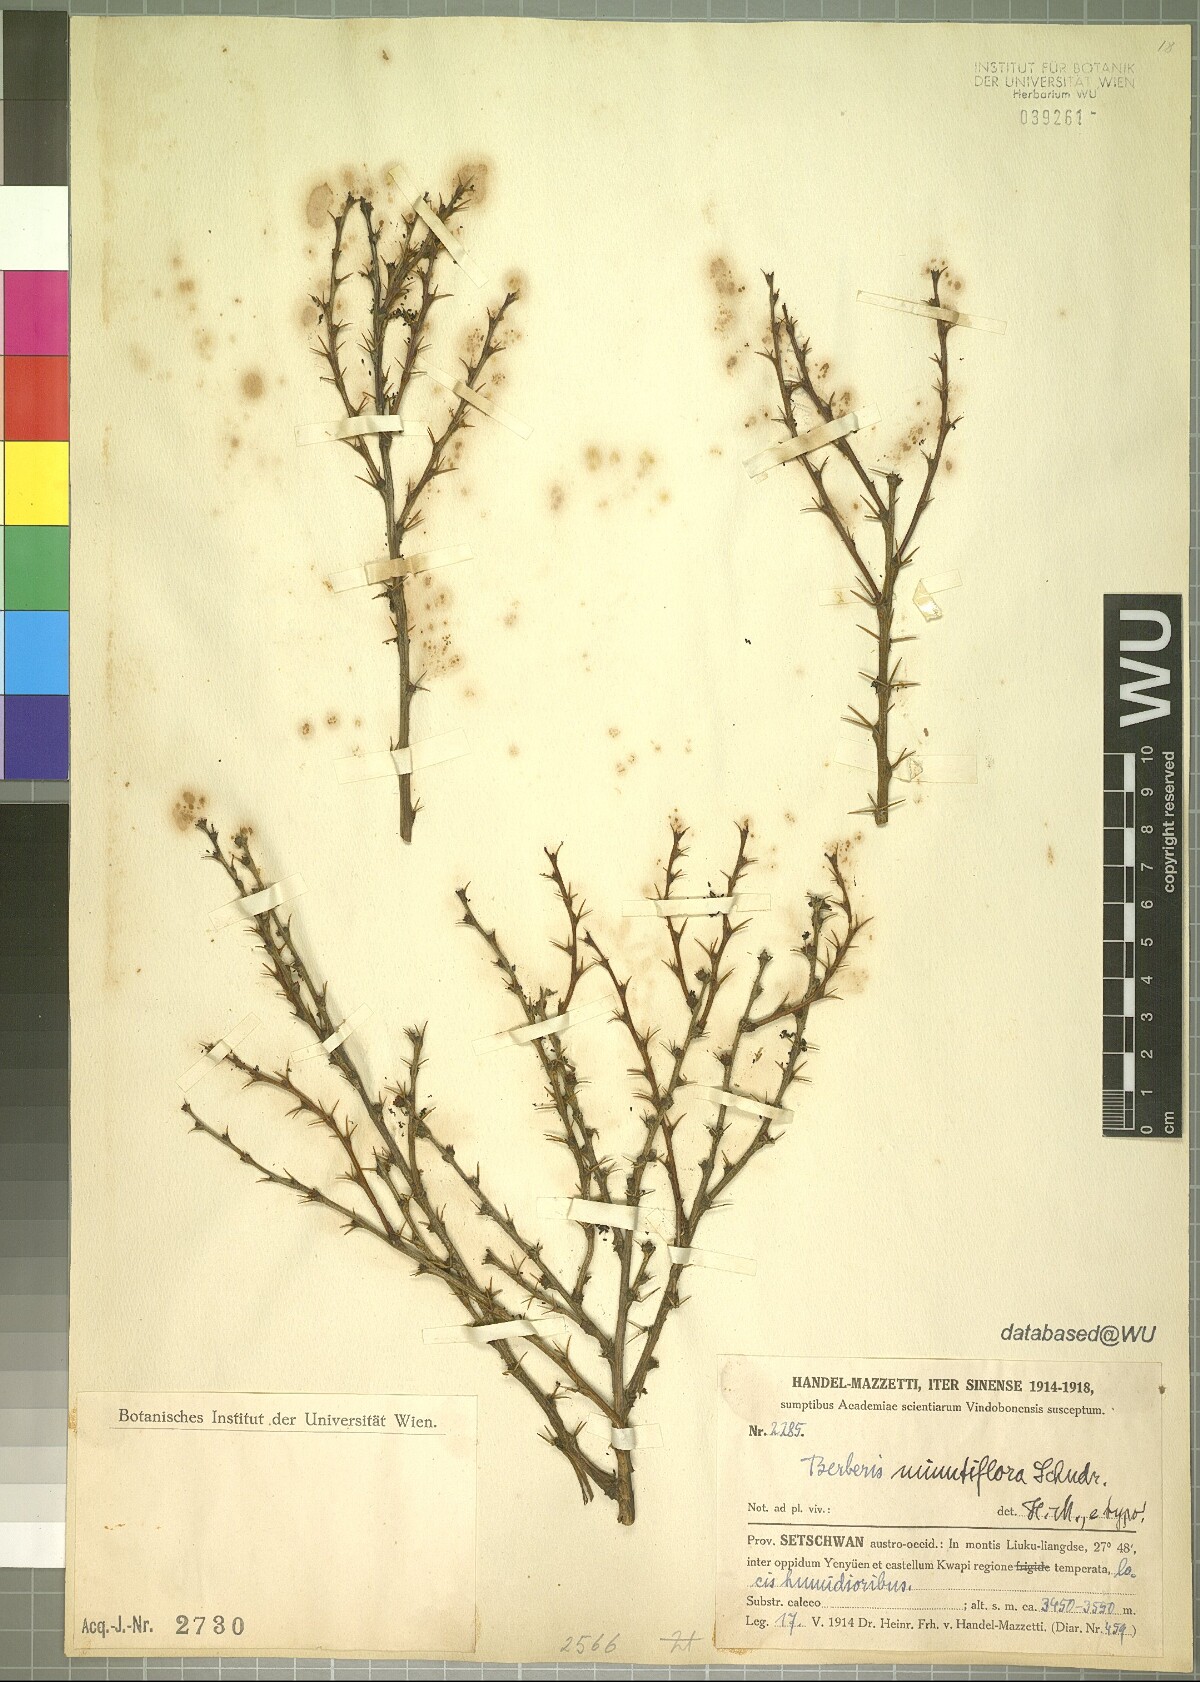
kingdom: Plantae
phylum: Tracheophyta
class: Magnoliopsida
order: Ranunculales
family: Berberidaceae
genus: Berberis
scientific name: Berberis minutiflora
